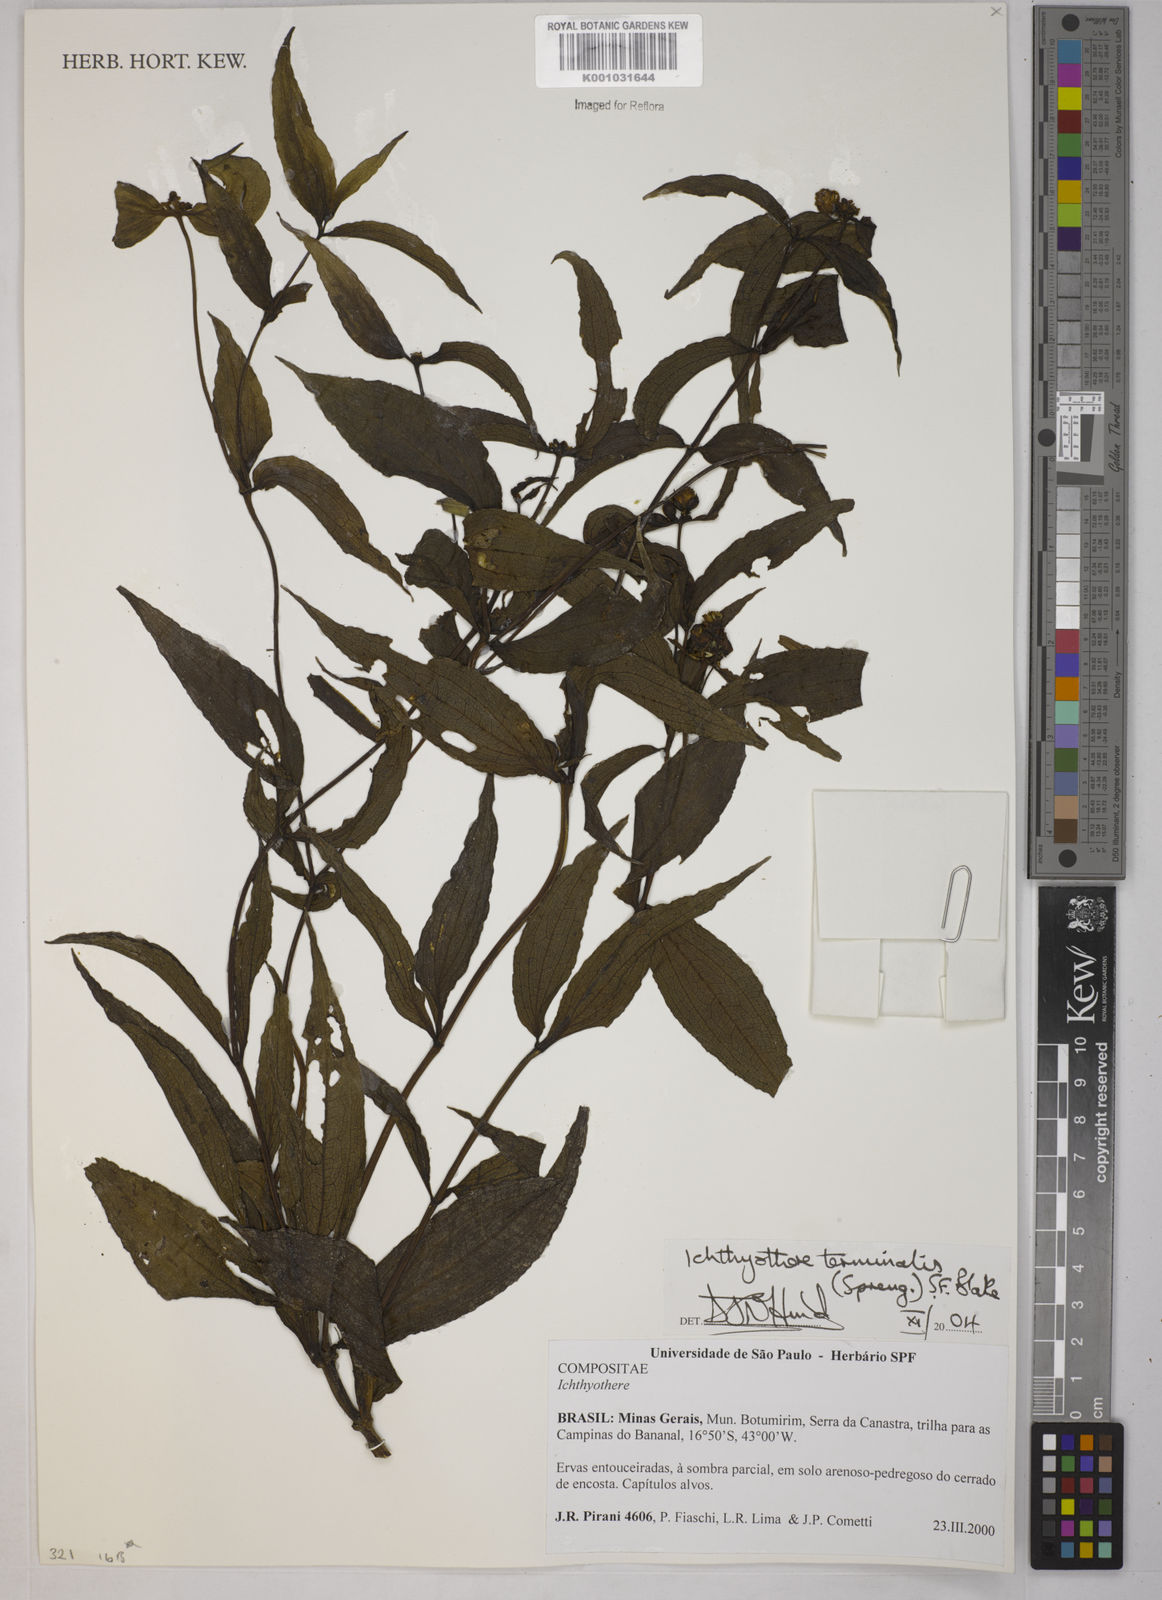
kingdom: Plantae
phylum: Tracheophyta
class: Magnoliopsida
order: Asterales
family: Asteraceae
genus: Ichthyothere
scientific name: Ichthyothere terminalis
